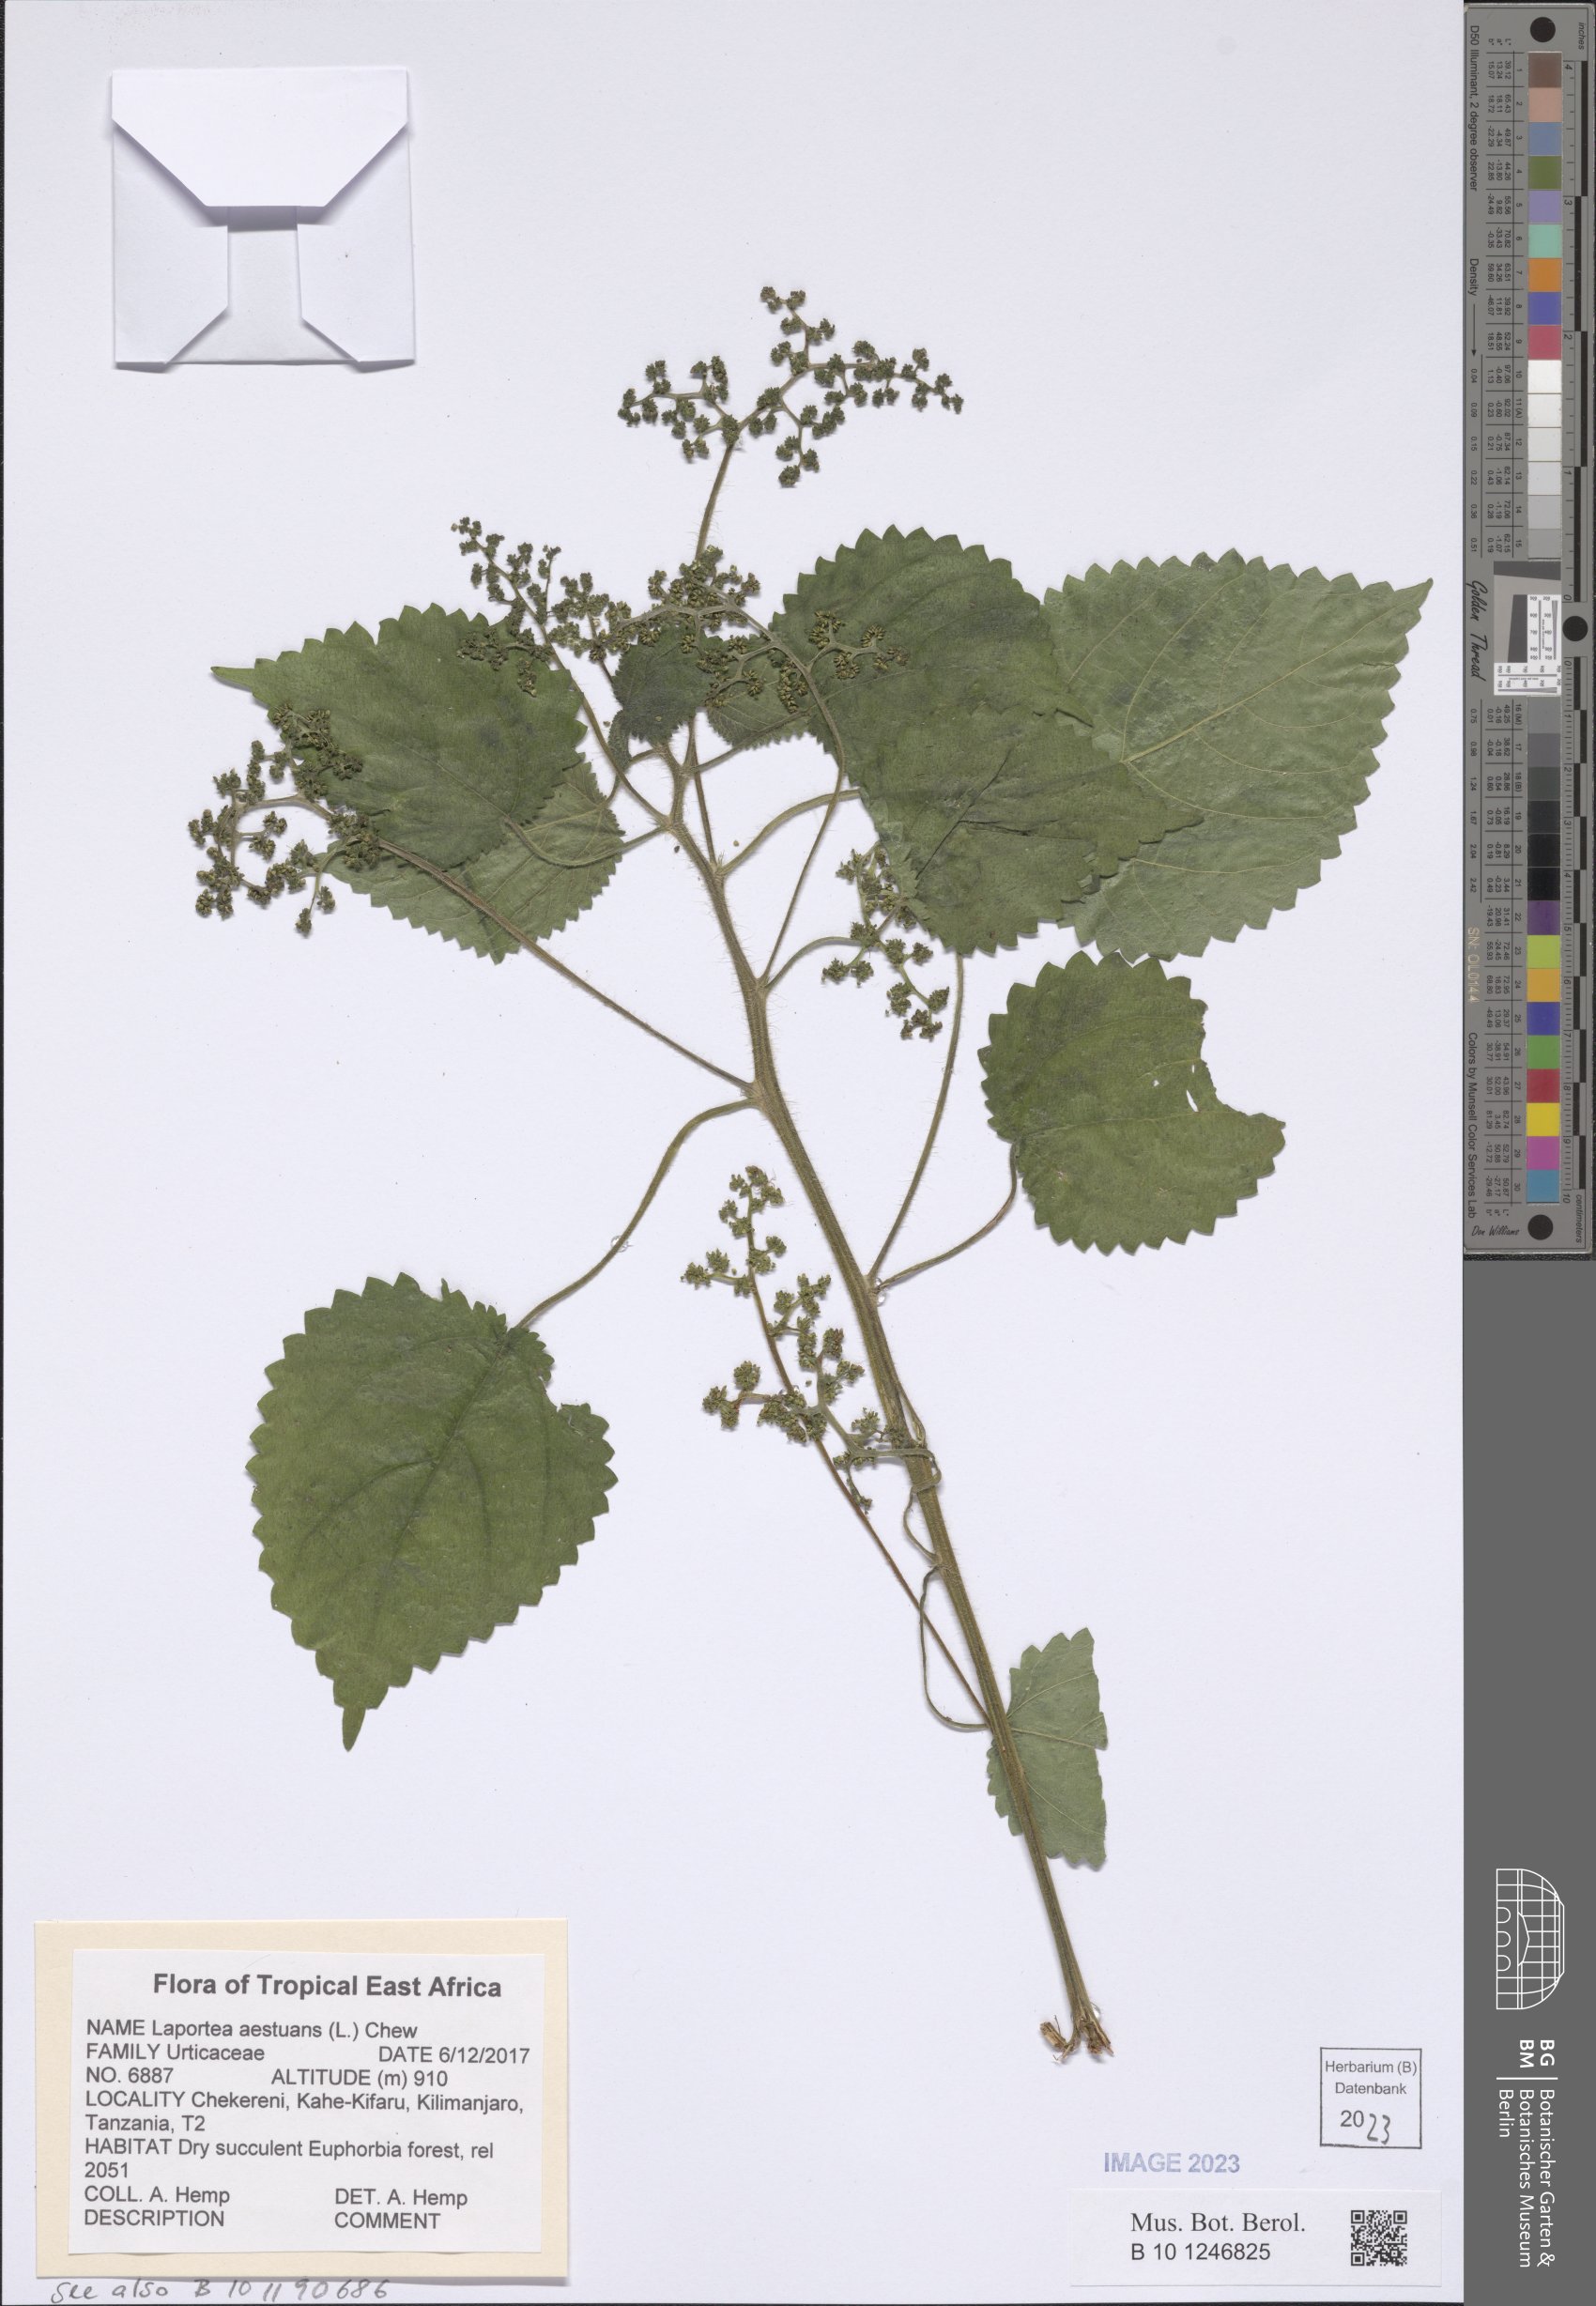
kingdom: Plantae
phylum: Tracheophyta
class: Magnoliopsida
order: Rosales
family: Urticaceae
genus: Laportea
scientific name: Laportea aestuans
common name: West indian woodnettle
